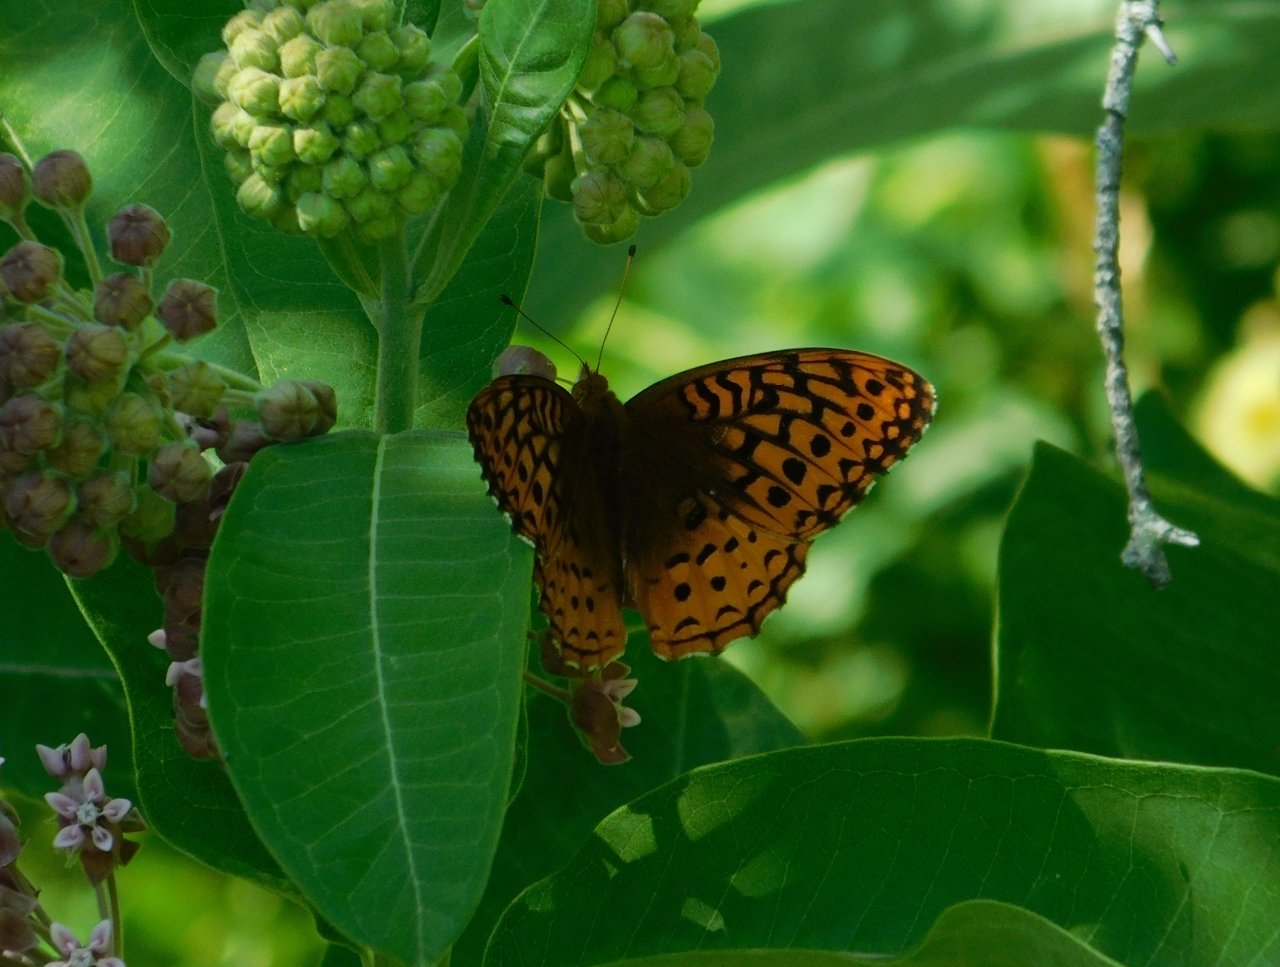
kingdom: Animalia
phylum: Arthropoda
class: Insecta
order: Lepidoptera
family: Nymphalidae
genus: Speyeria
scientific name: Speyeria cybele
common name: Great Spangled Fritillary
